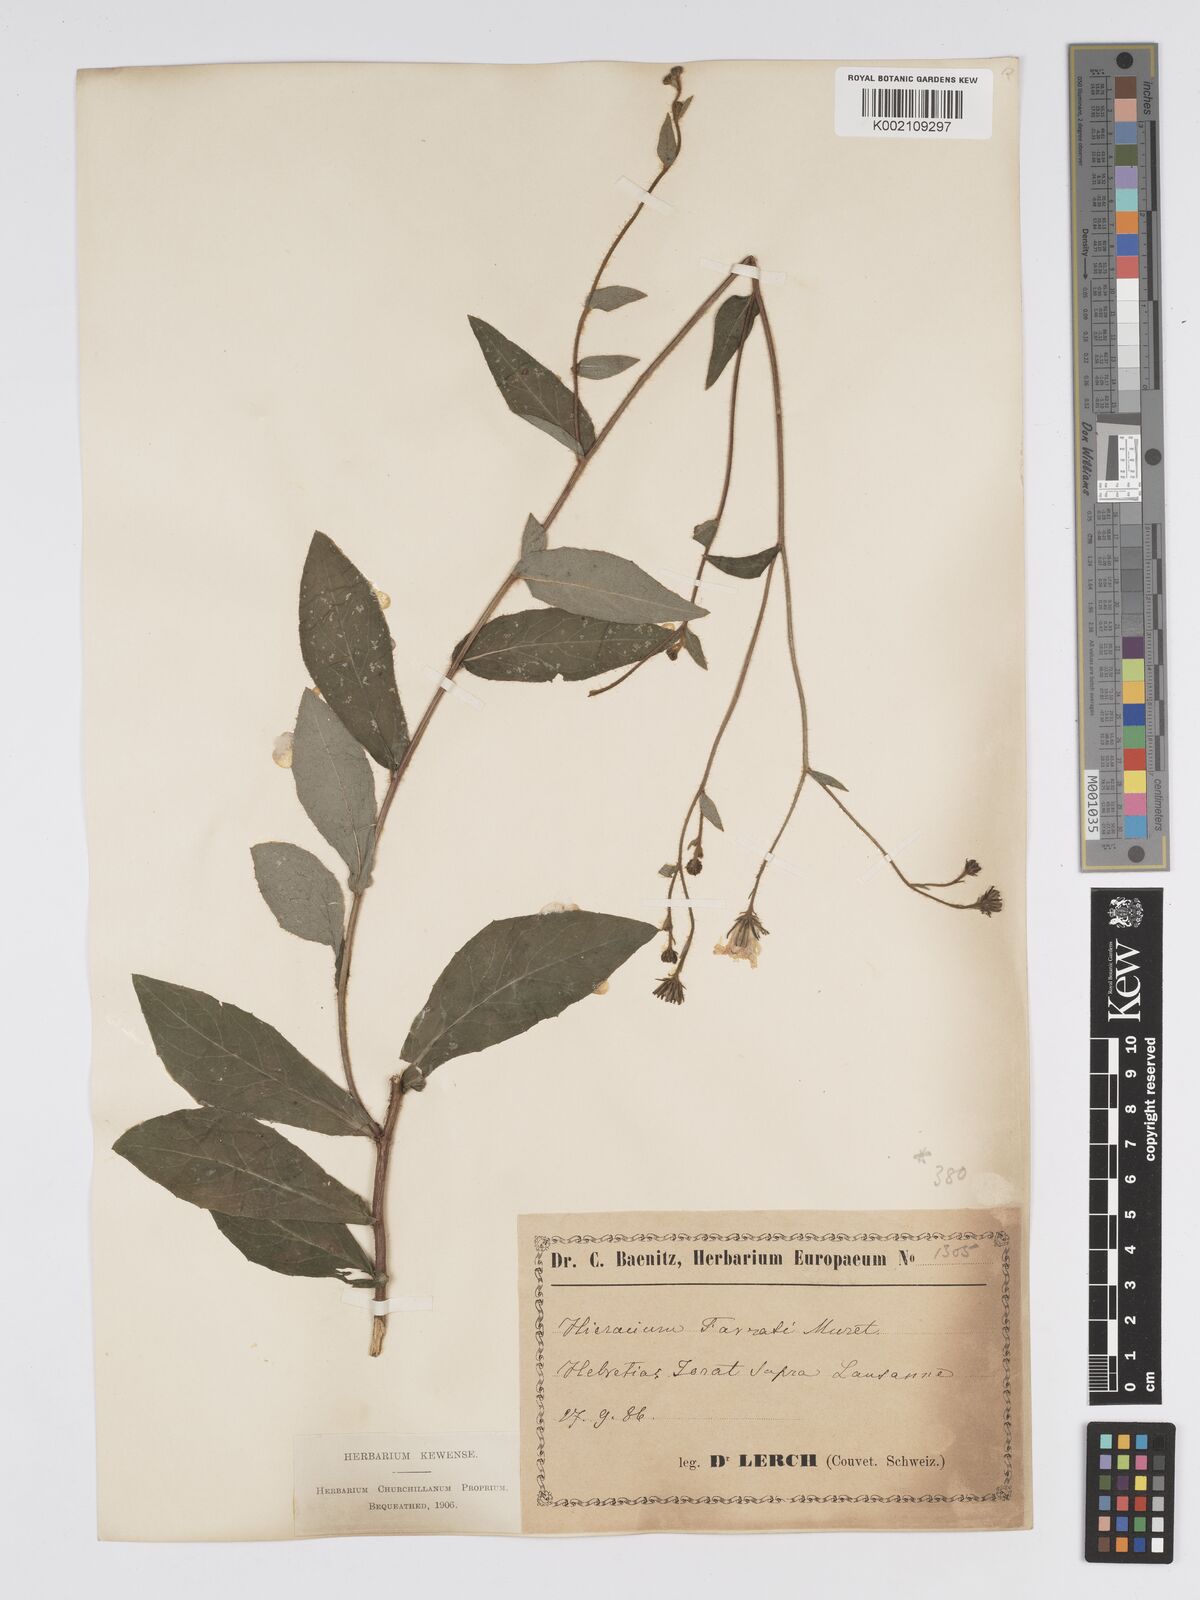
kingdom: Plantae
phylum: Tracheophyta
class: Magnoliopsida
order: Asterales
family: Asteraceae
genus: Hieracium
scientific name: Hieracium favratii
